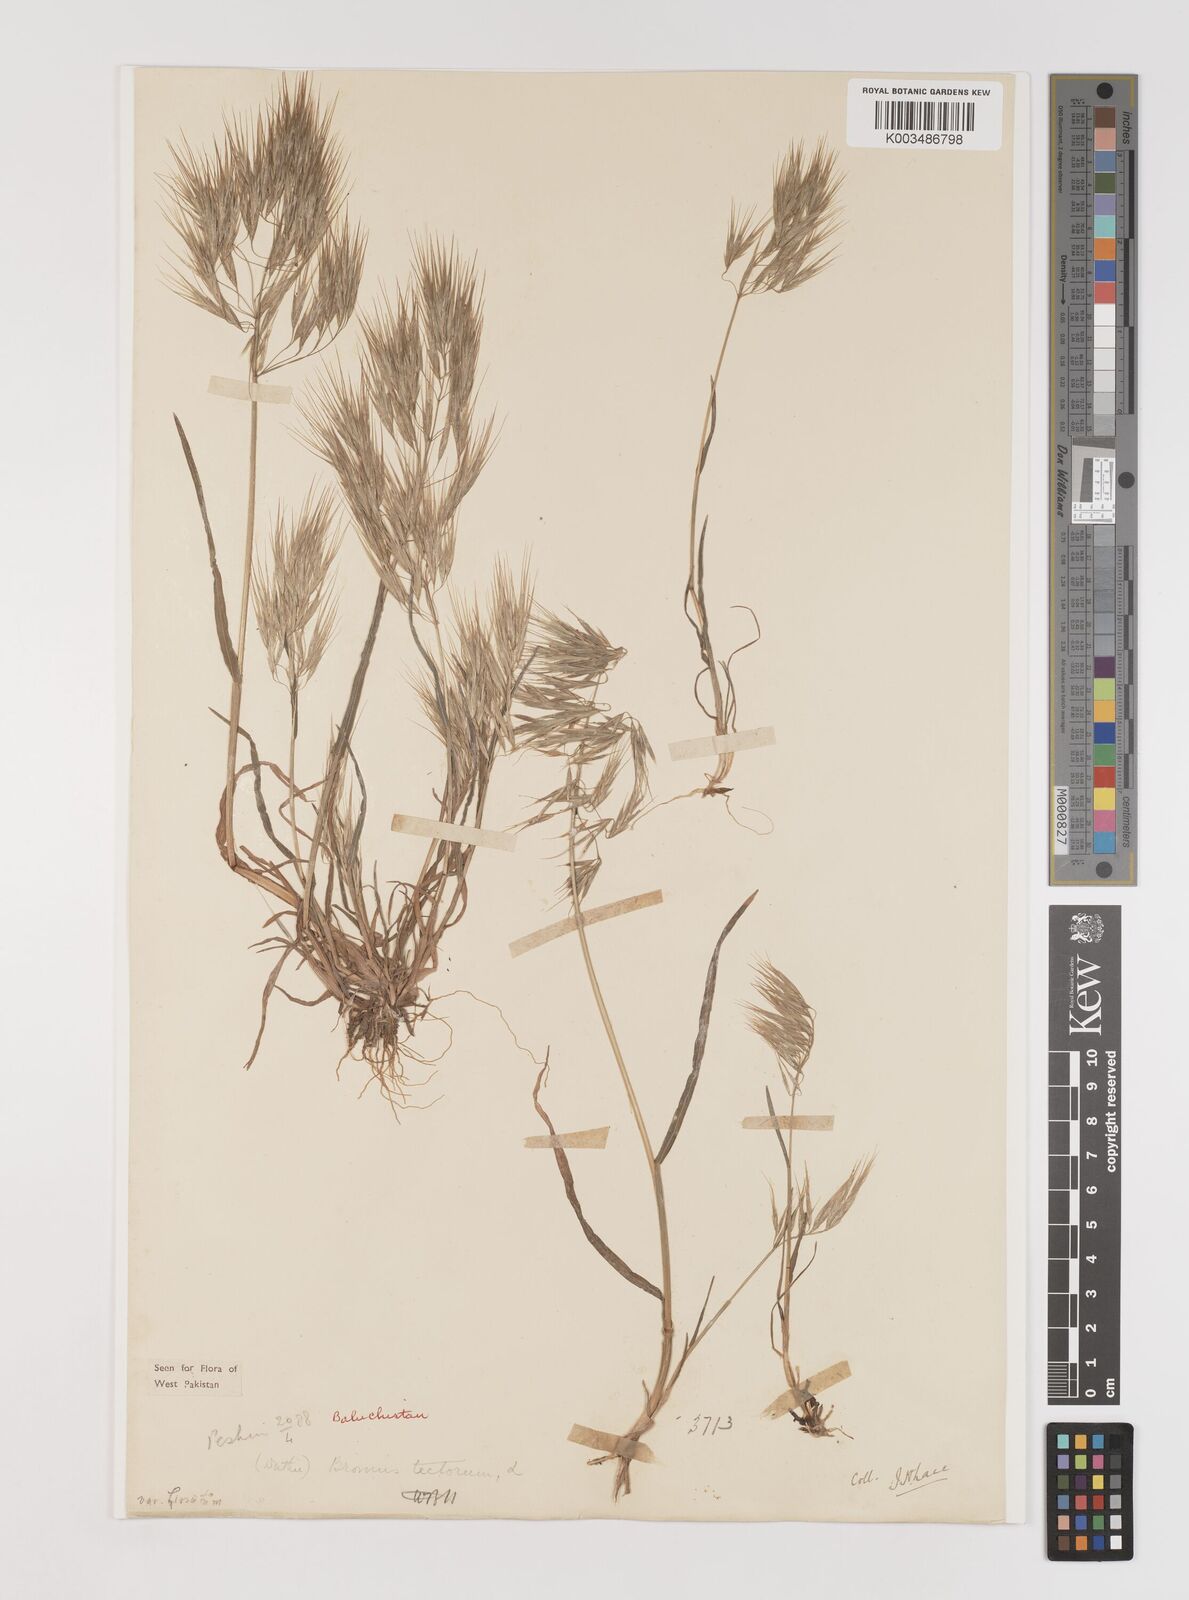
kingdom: Plantae
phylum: Tracheophyta
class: Liliopsida
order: Poales
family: Poaceae
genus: Bromus
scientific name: Bromus tectorum
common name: Cheatgrass
